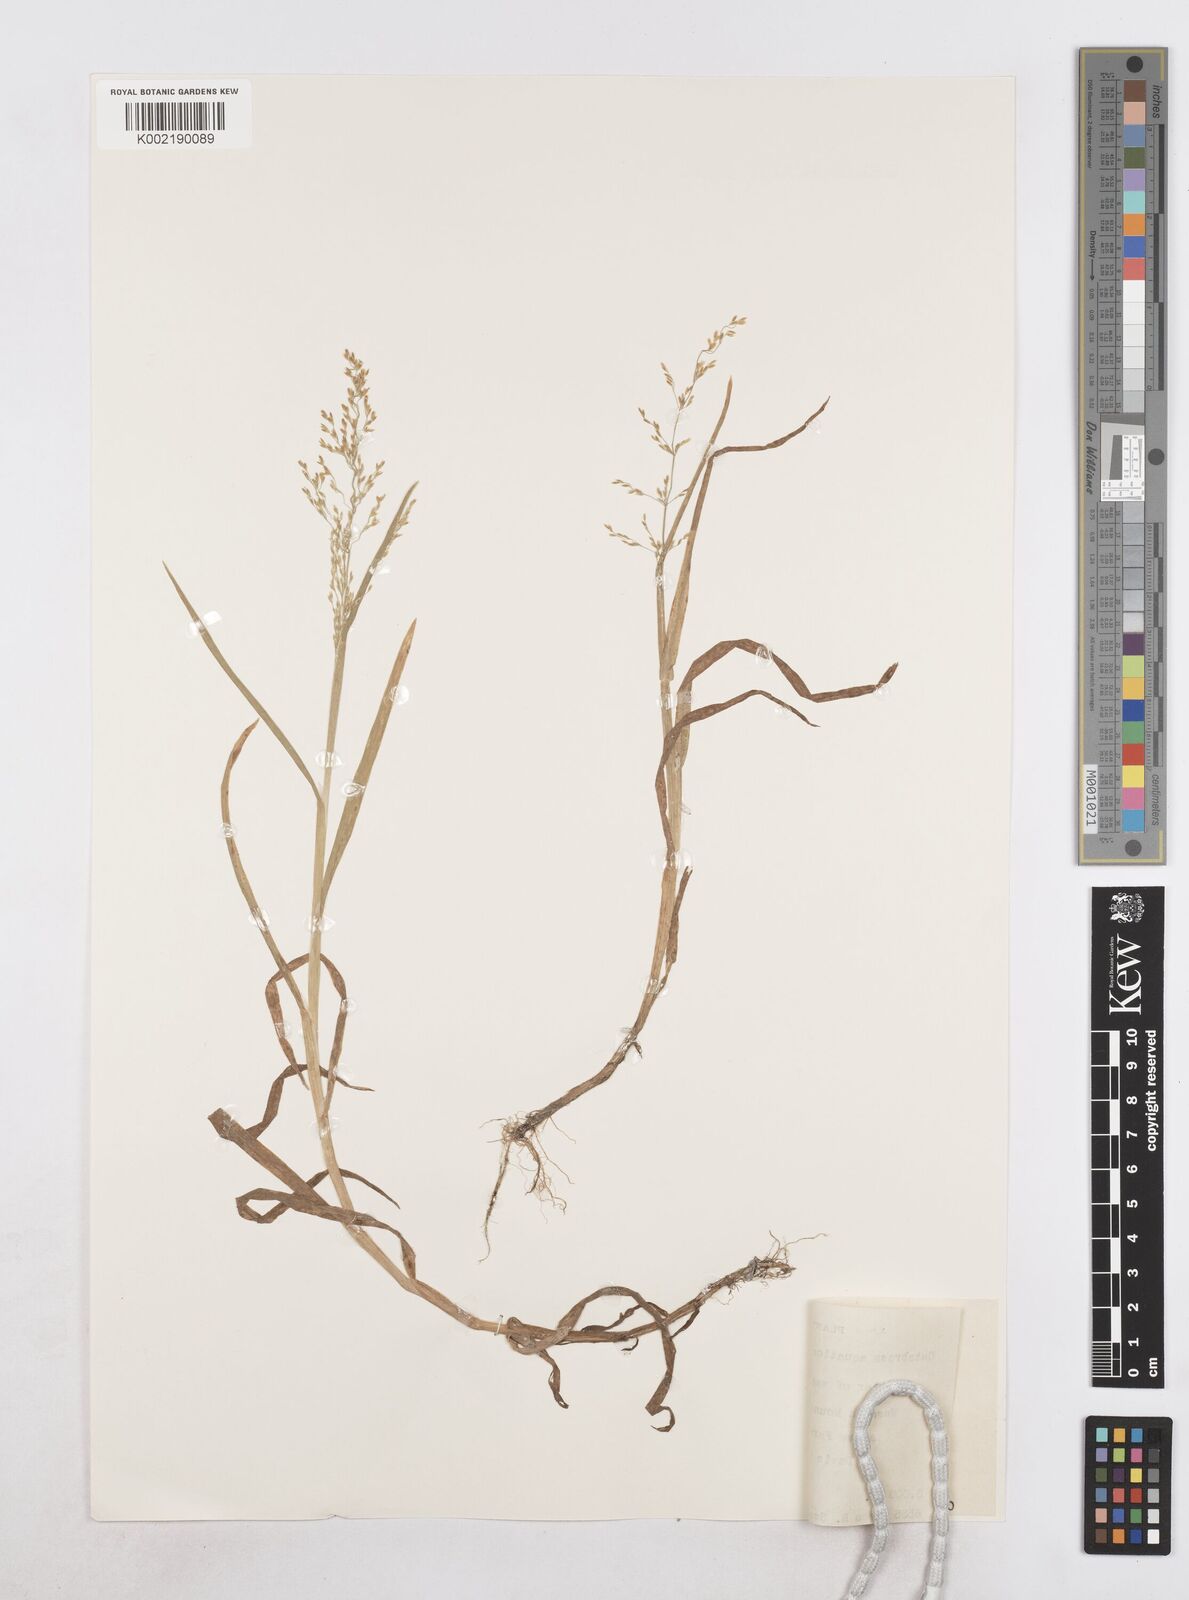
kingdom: Plantae
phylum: Tracheophyta
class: Liliopsida
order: Poales
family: Poaceae
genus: Catabrosa
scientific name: Catabrosa aquatica
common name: Whorl-grass
